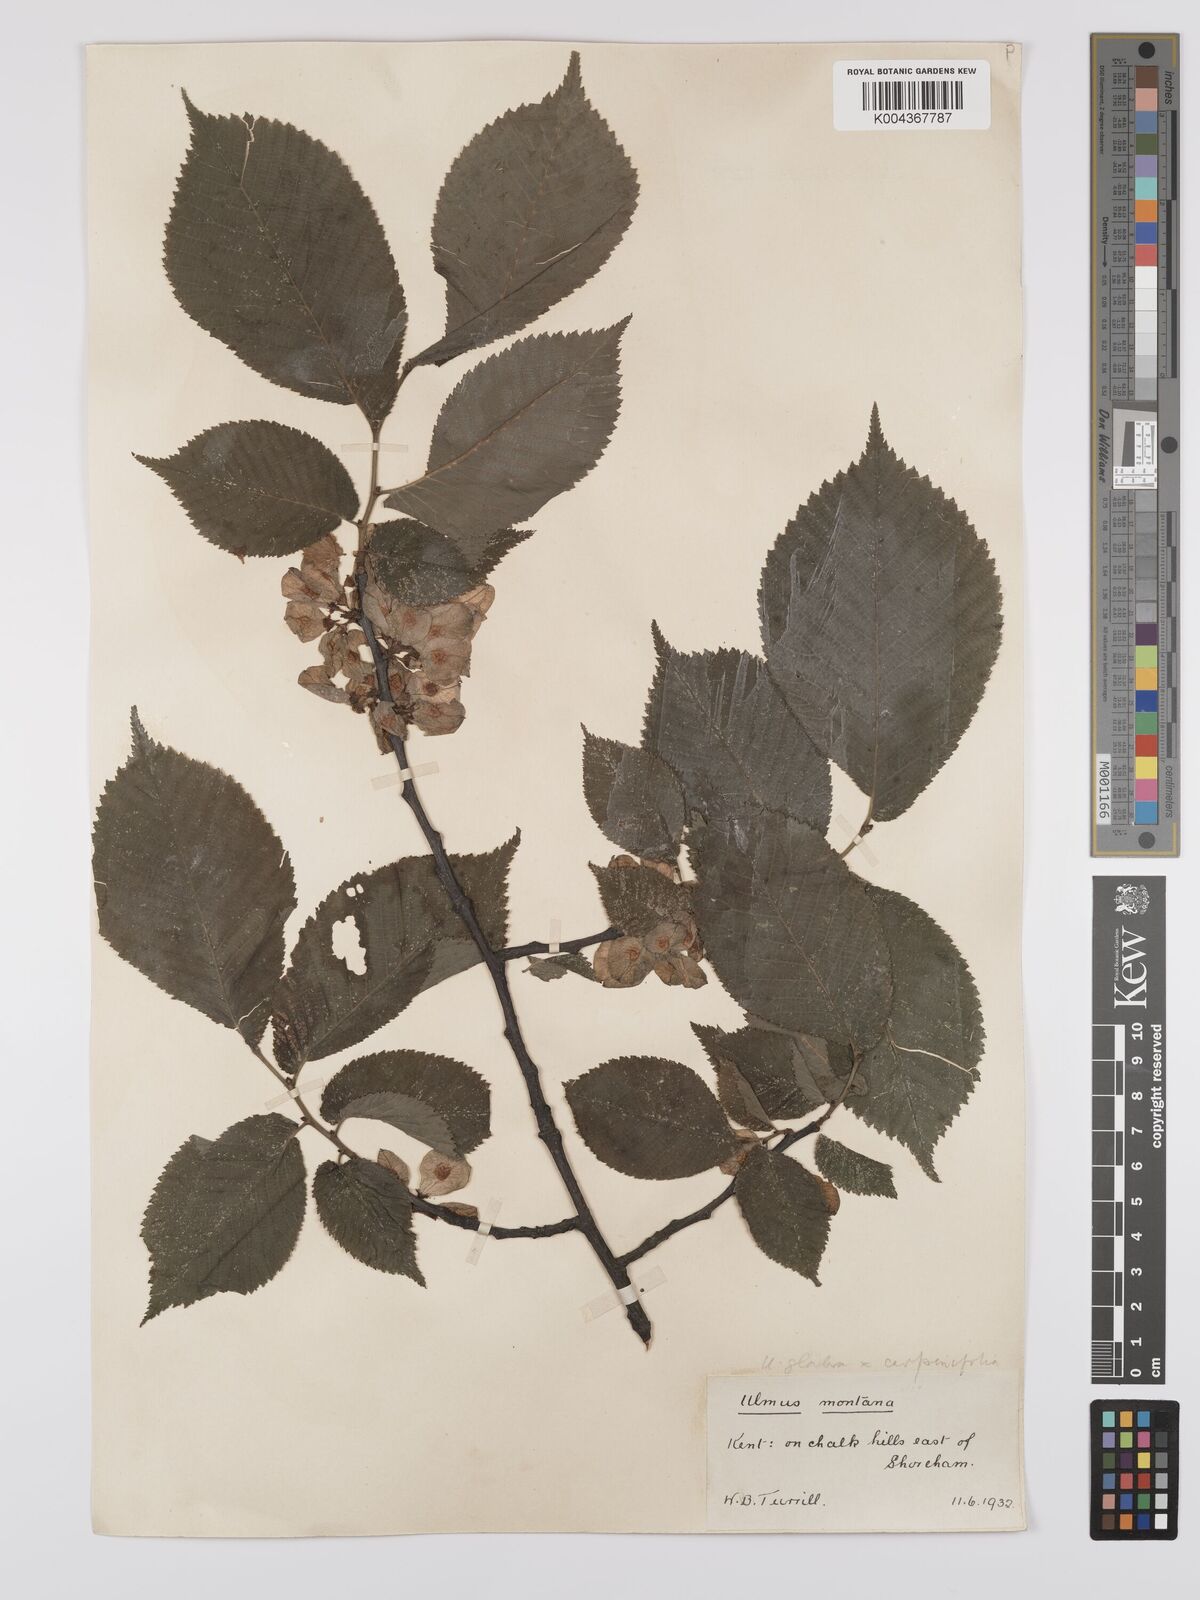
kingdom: Plantae
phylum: Tracheophyta
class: Magnoliopsida
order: Rosales
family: Ulmaceae
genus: Ulmus
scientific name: Ulmus glabra
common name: Wych elm
